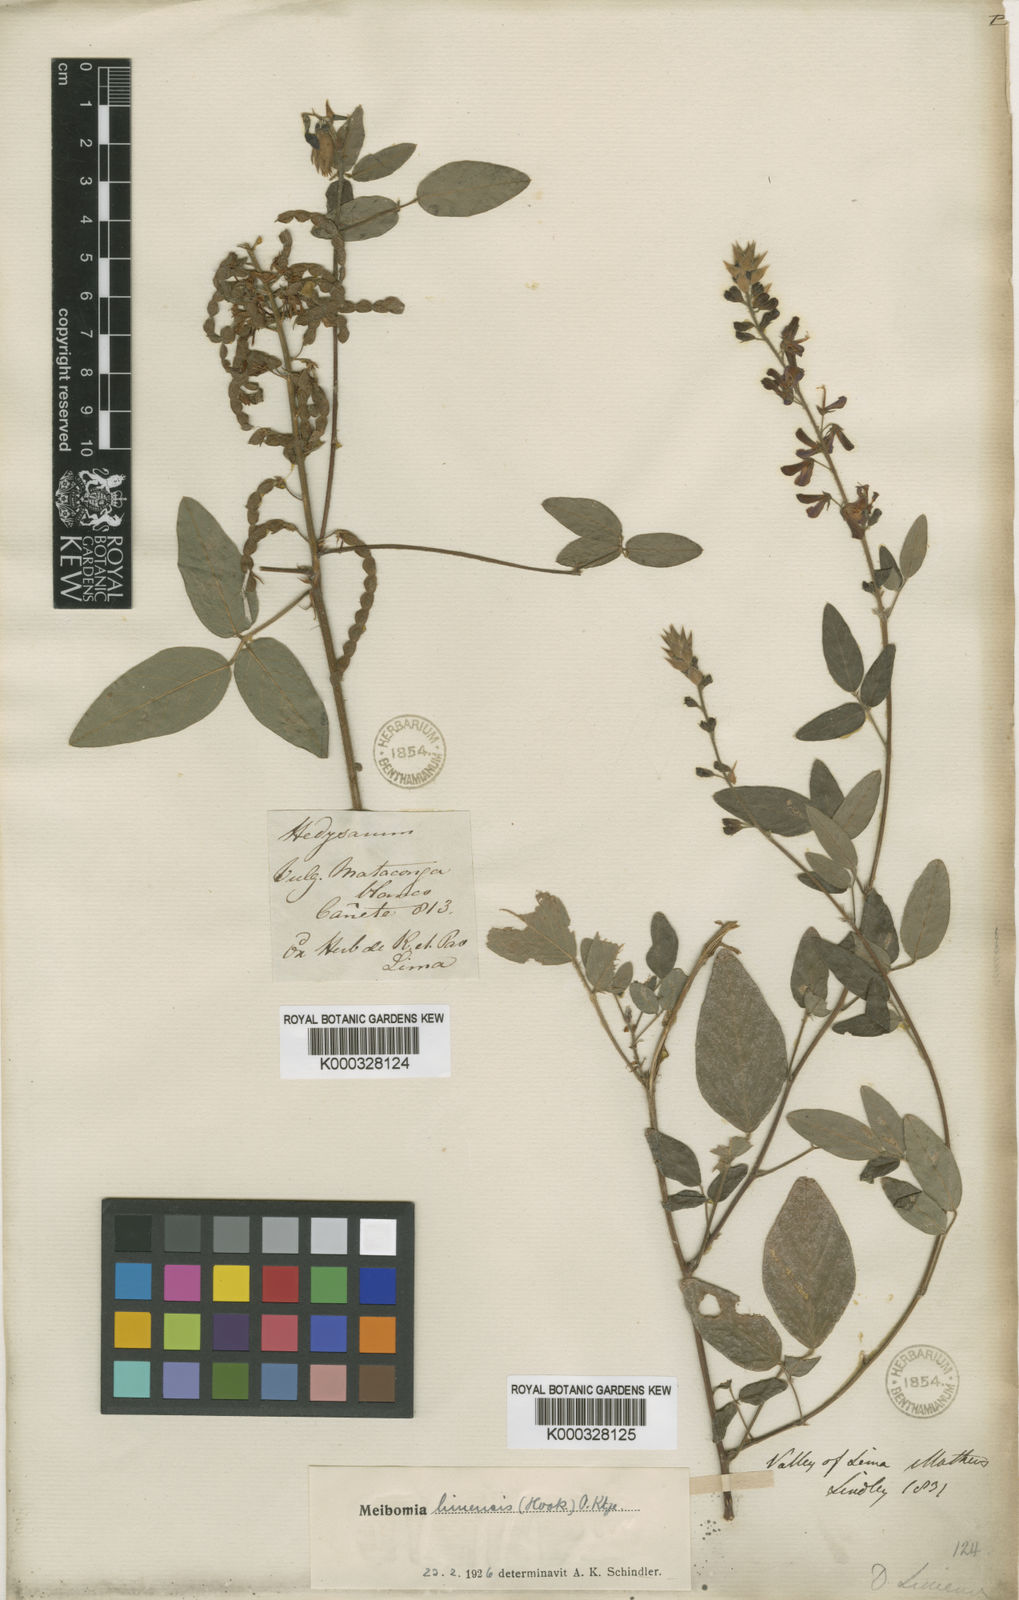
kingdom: Plantae
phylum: Tracheophyta
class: Magnoliopsida
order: Fabales
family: Fabaceae
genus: Desmodium
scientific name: Desmodium limense
